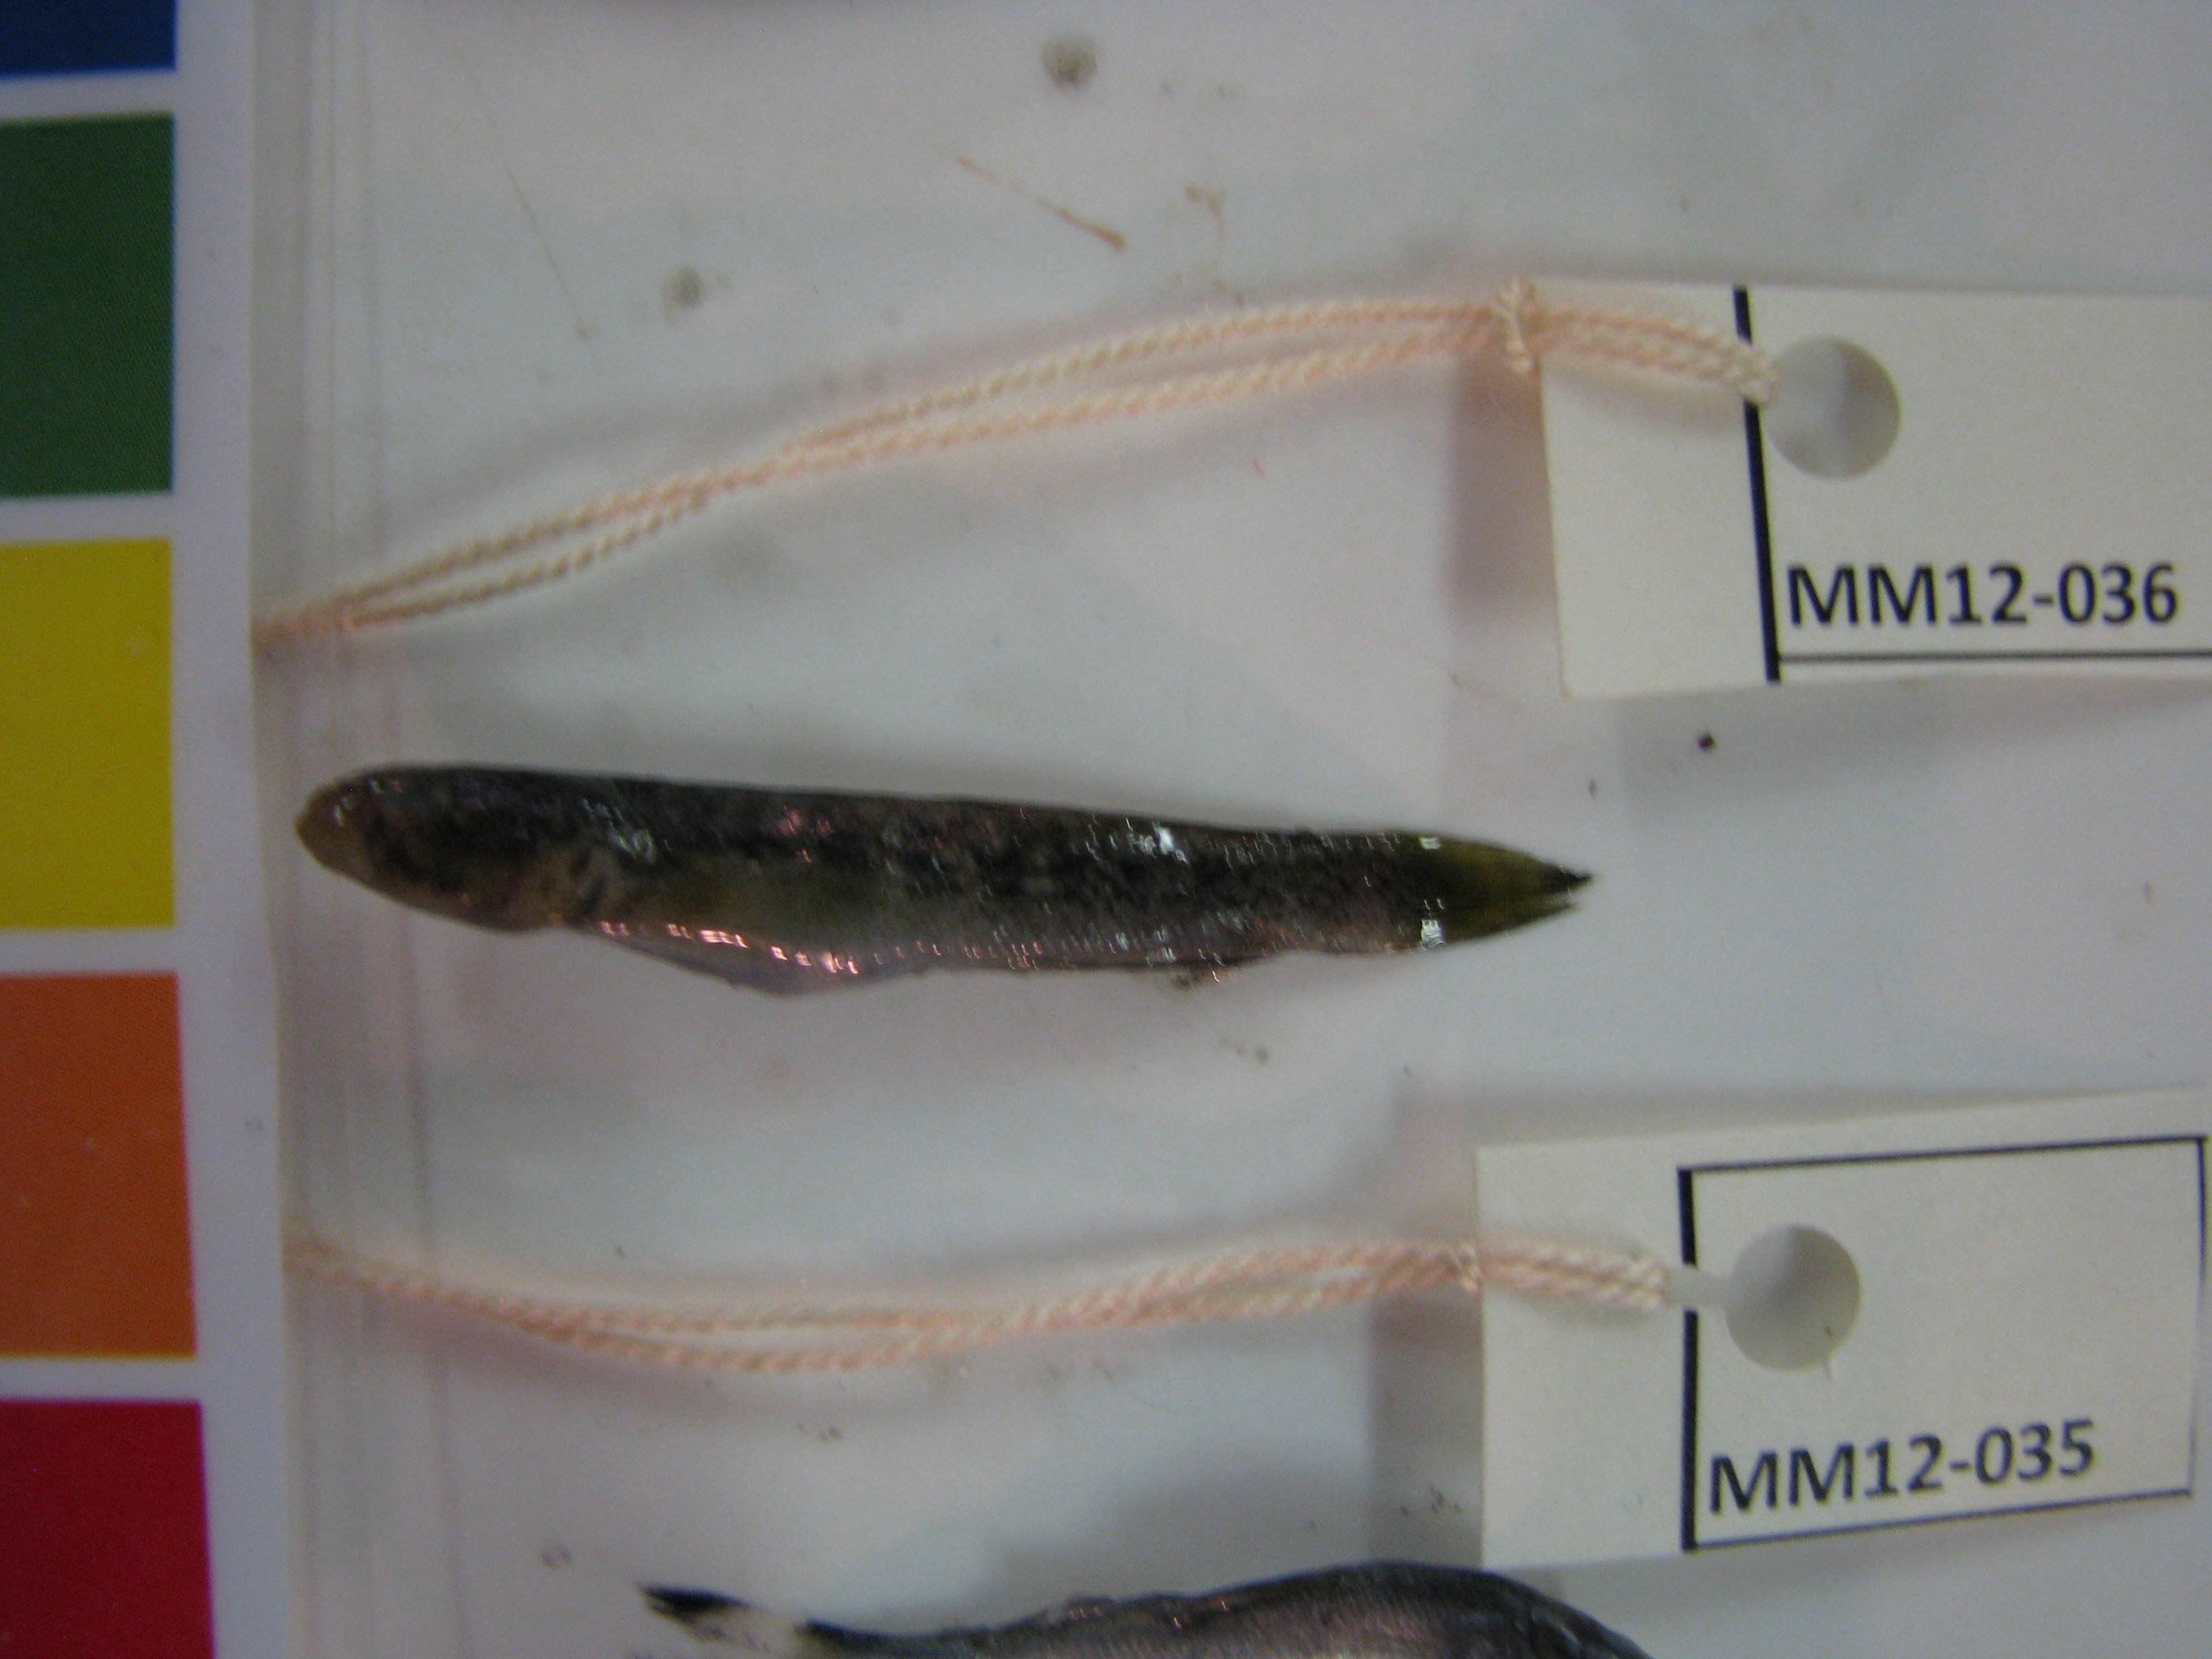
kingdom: Animalia
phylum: Chordata
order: Perciformes
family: Gobiidae
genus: Caffrogobius
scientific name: Caffrogobius nudiceps
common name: Barehead goby
